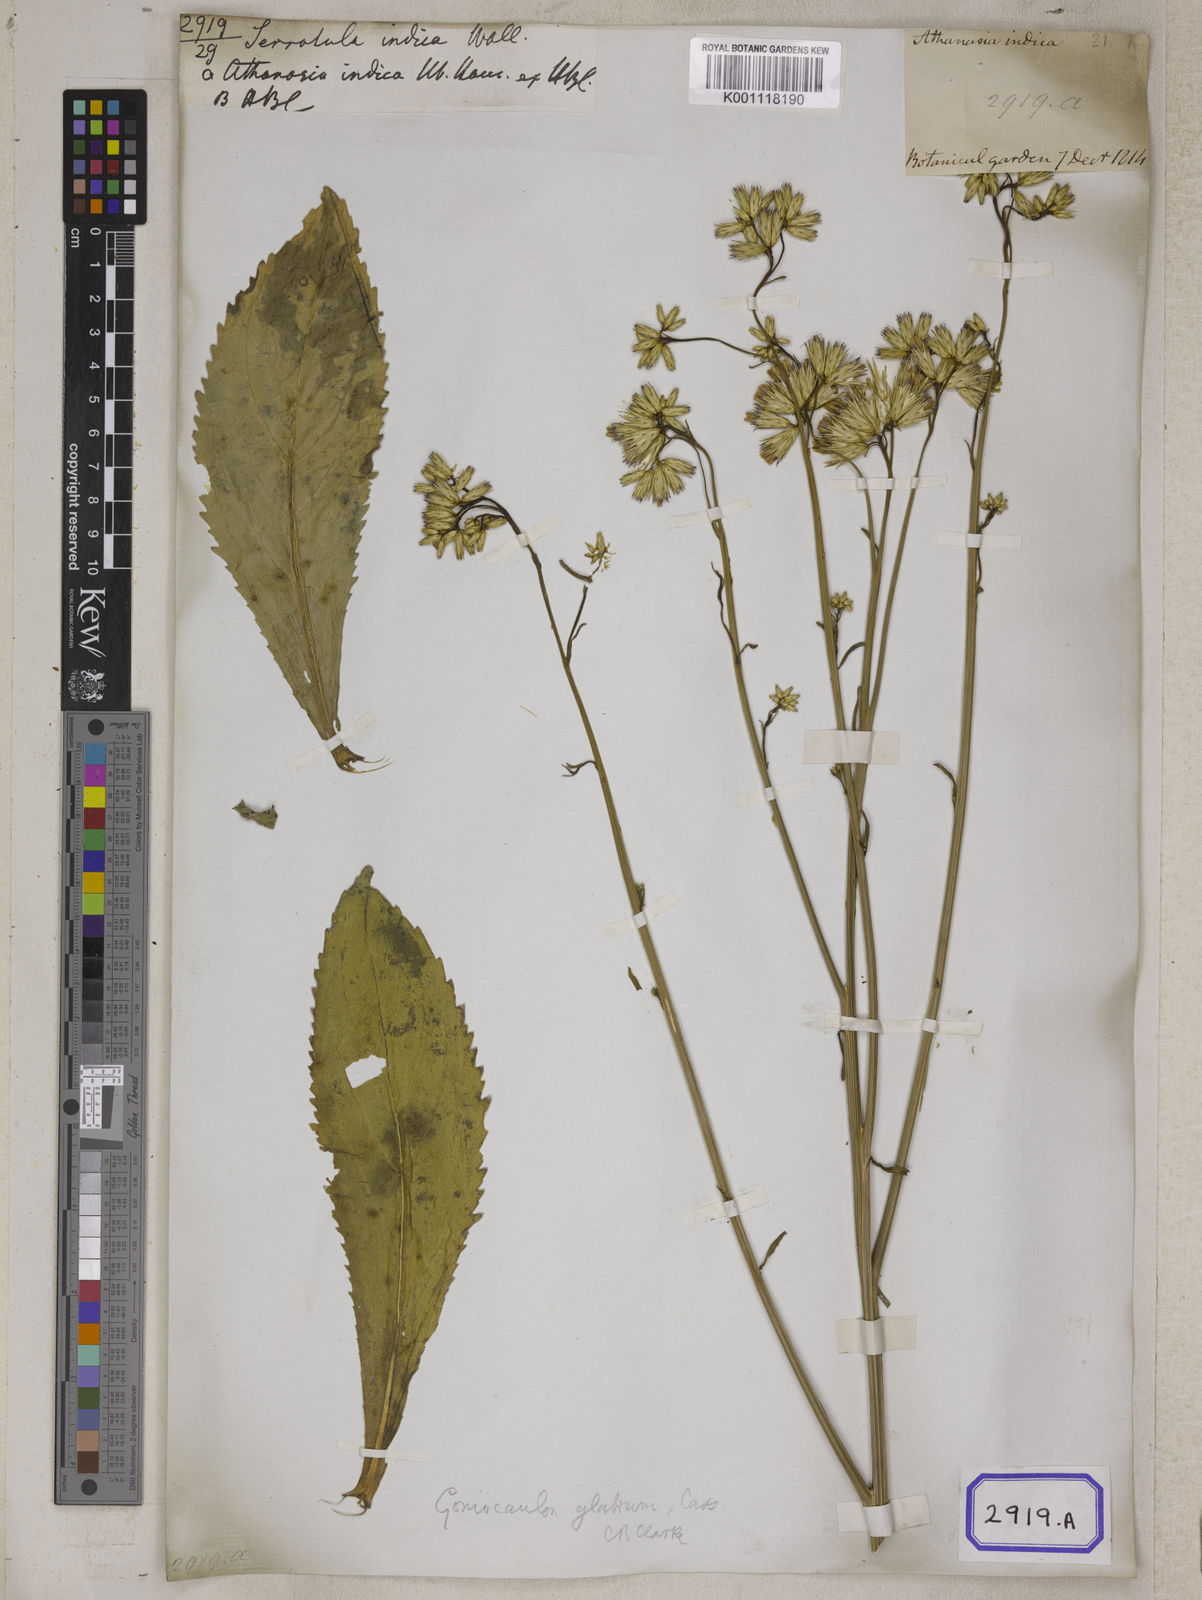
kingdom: Plantae
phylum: Tracheophyta
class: Magnoliopsida
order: Asterales
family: Asteraceae
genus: Echinops
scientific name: Echinops echinatus
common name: Indian globe thistle
